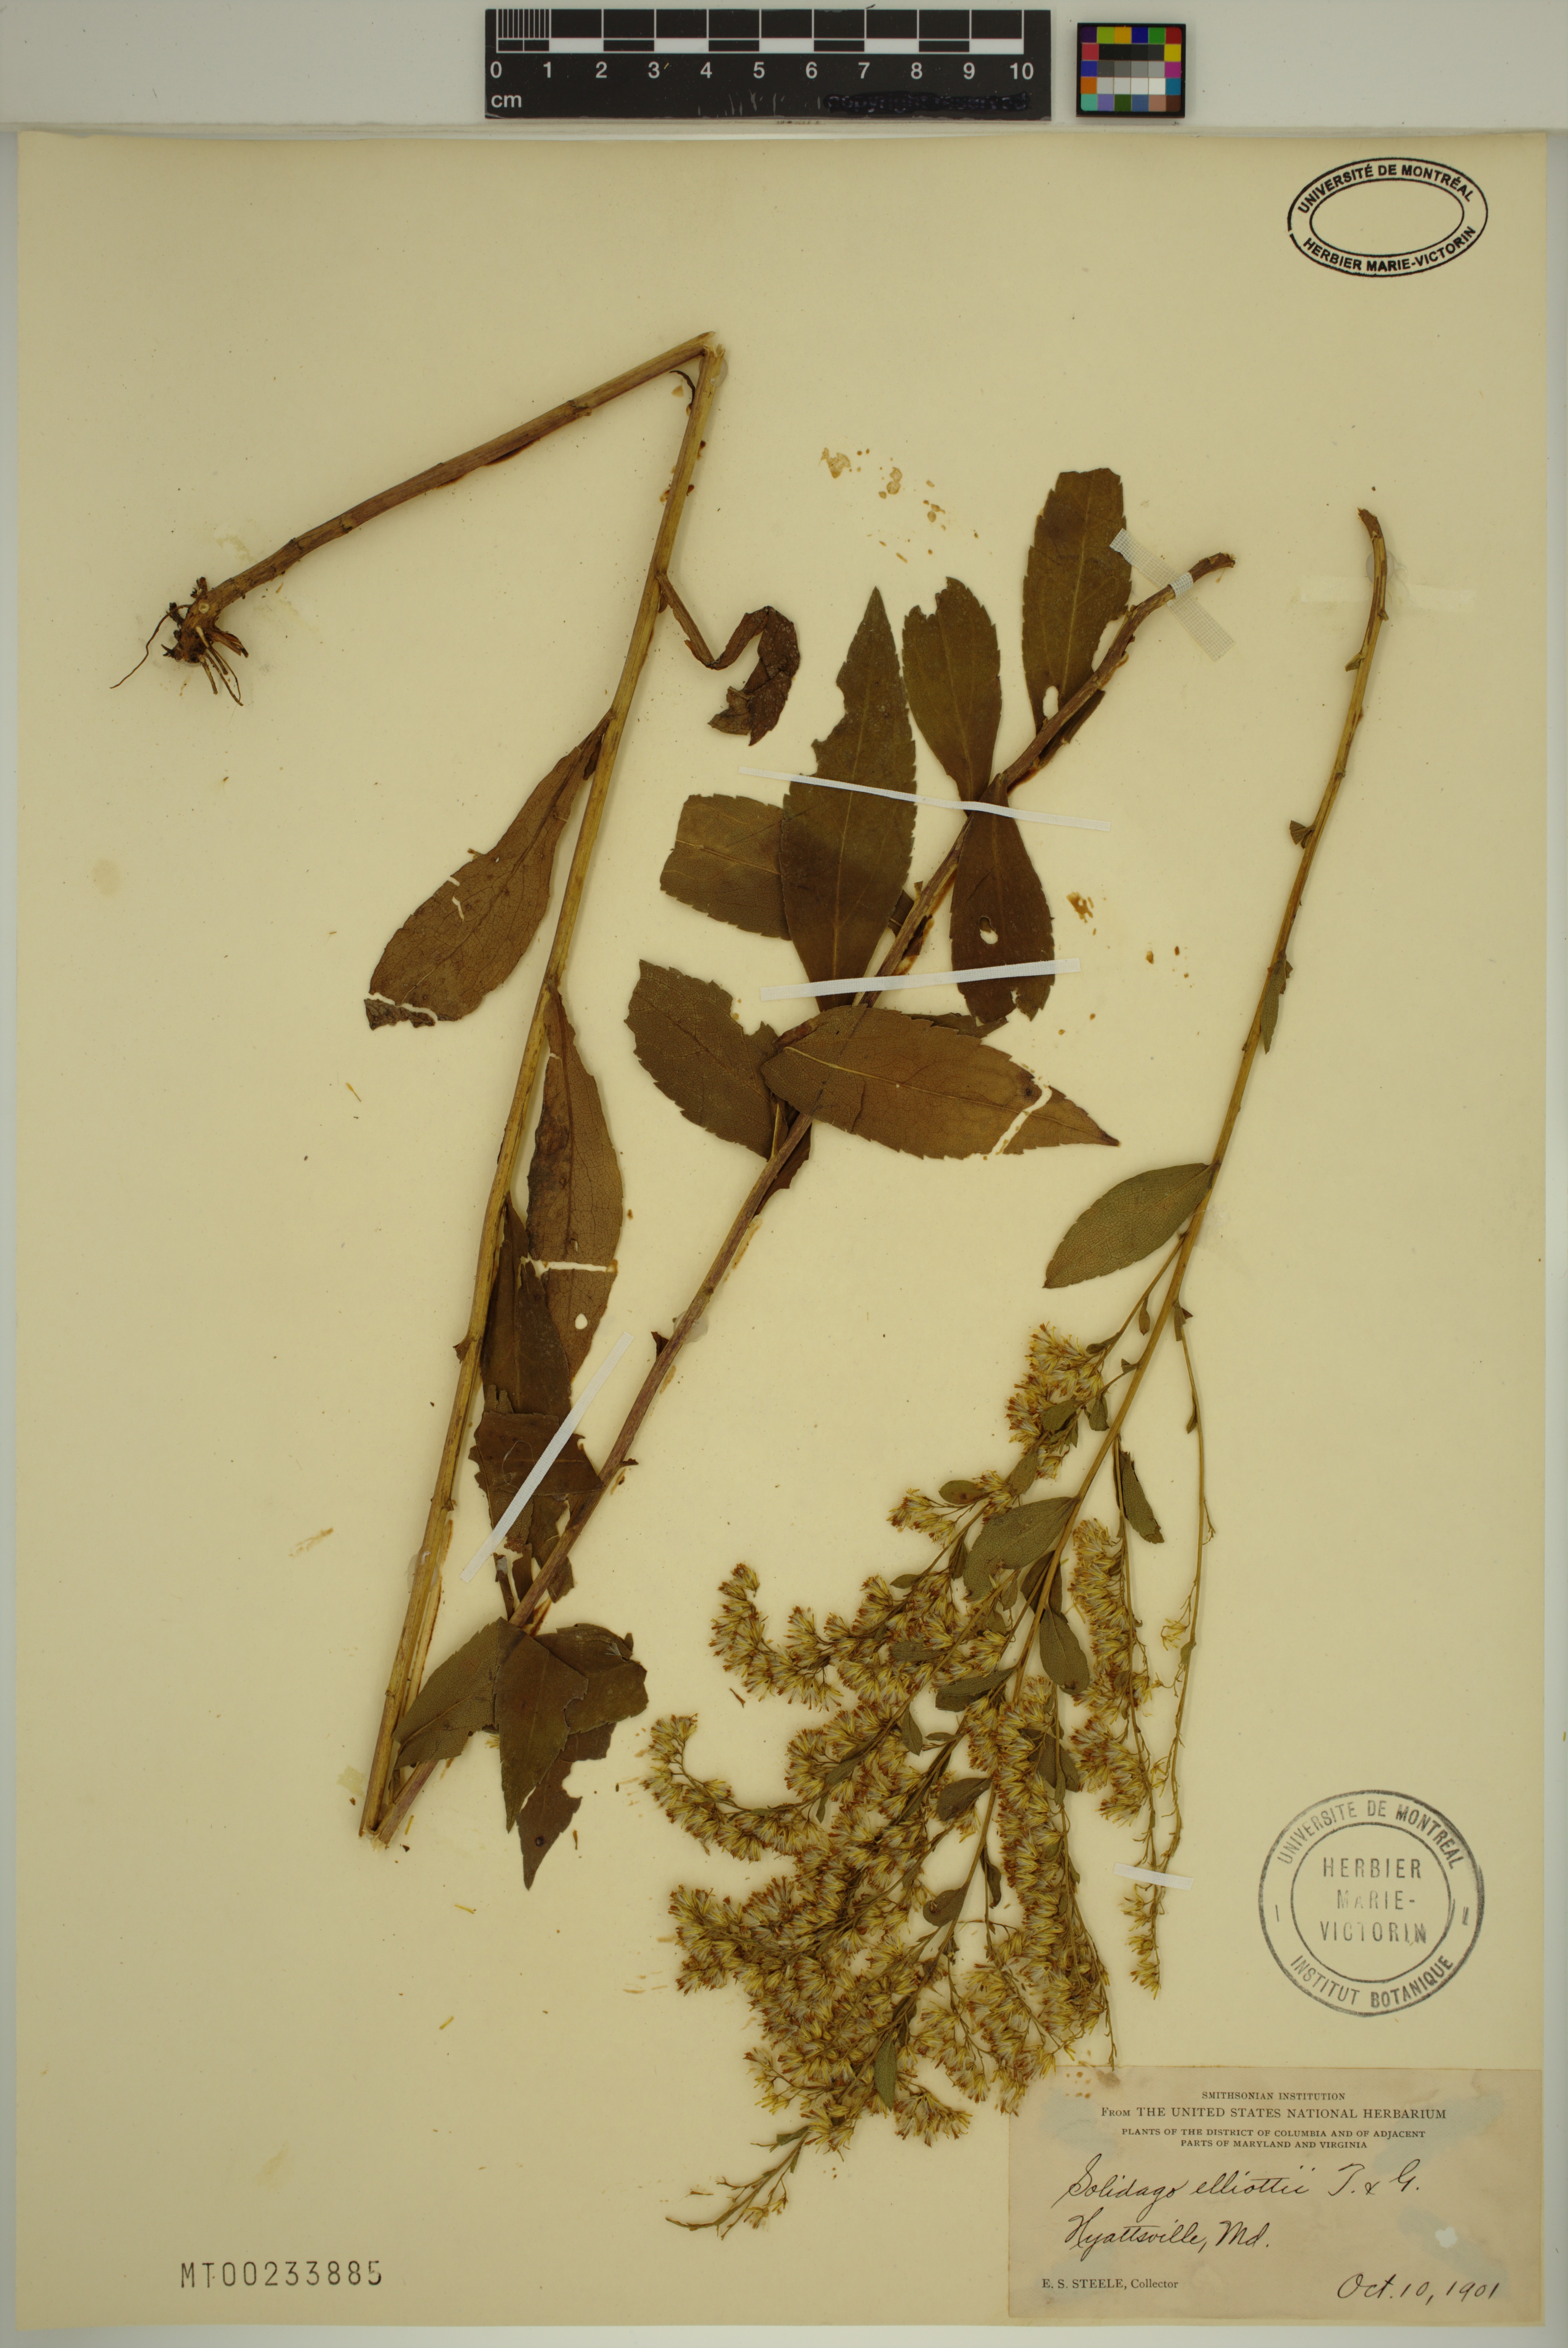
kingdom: Plantae
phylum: Tracheophyta
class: Magnoliopsida
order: Asterales
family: Asteraceae
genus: Solidago
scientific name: Solidago latissimifolia
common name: Elliott's goldenrod
